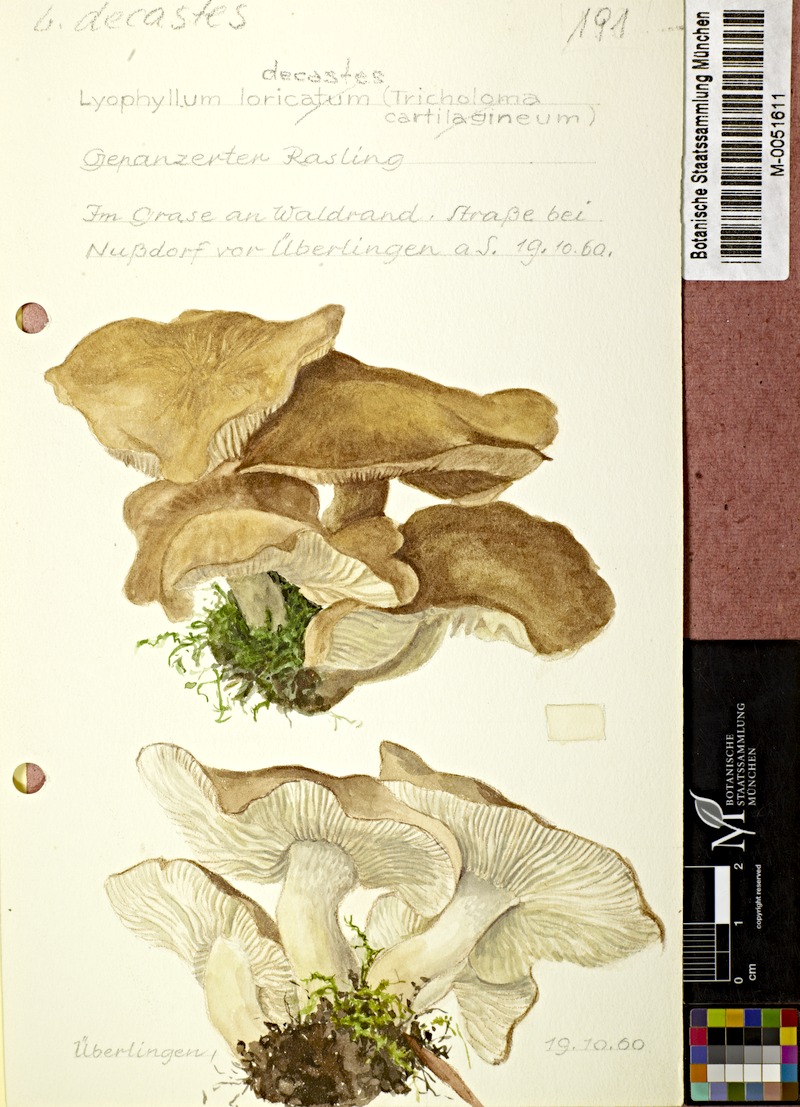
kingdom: Fungi
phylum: Basidiomycota
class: Agaricomycetes
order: Agaricales
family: Lyophyllaceae
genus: Lyophyllum
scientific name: Lyophyllum decastes
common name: Clustered domecap
